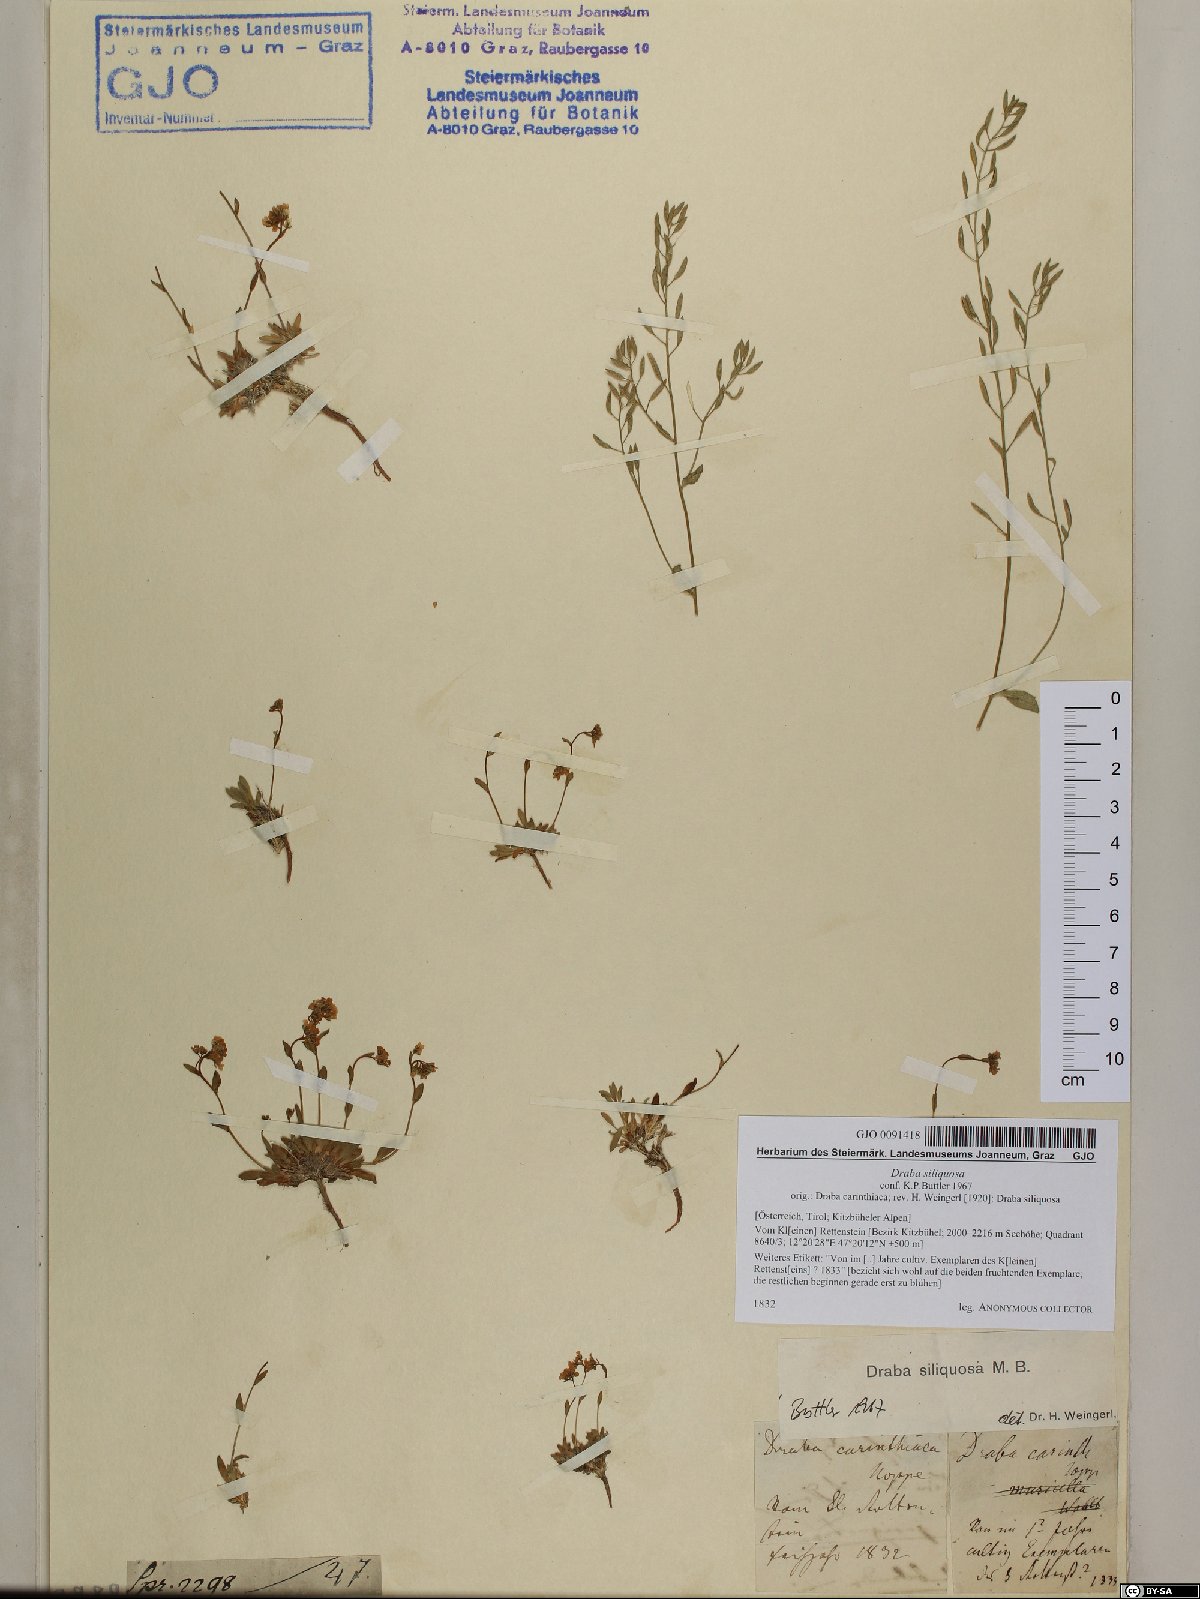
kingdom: Plantae
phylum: Tracheophyta
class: Magnoliopsida
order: Brassicales
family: Brassicaceae
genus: Draba
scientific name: Draba siliquosa
